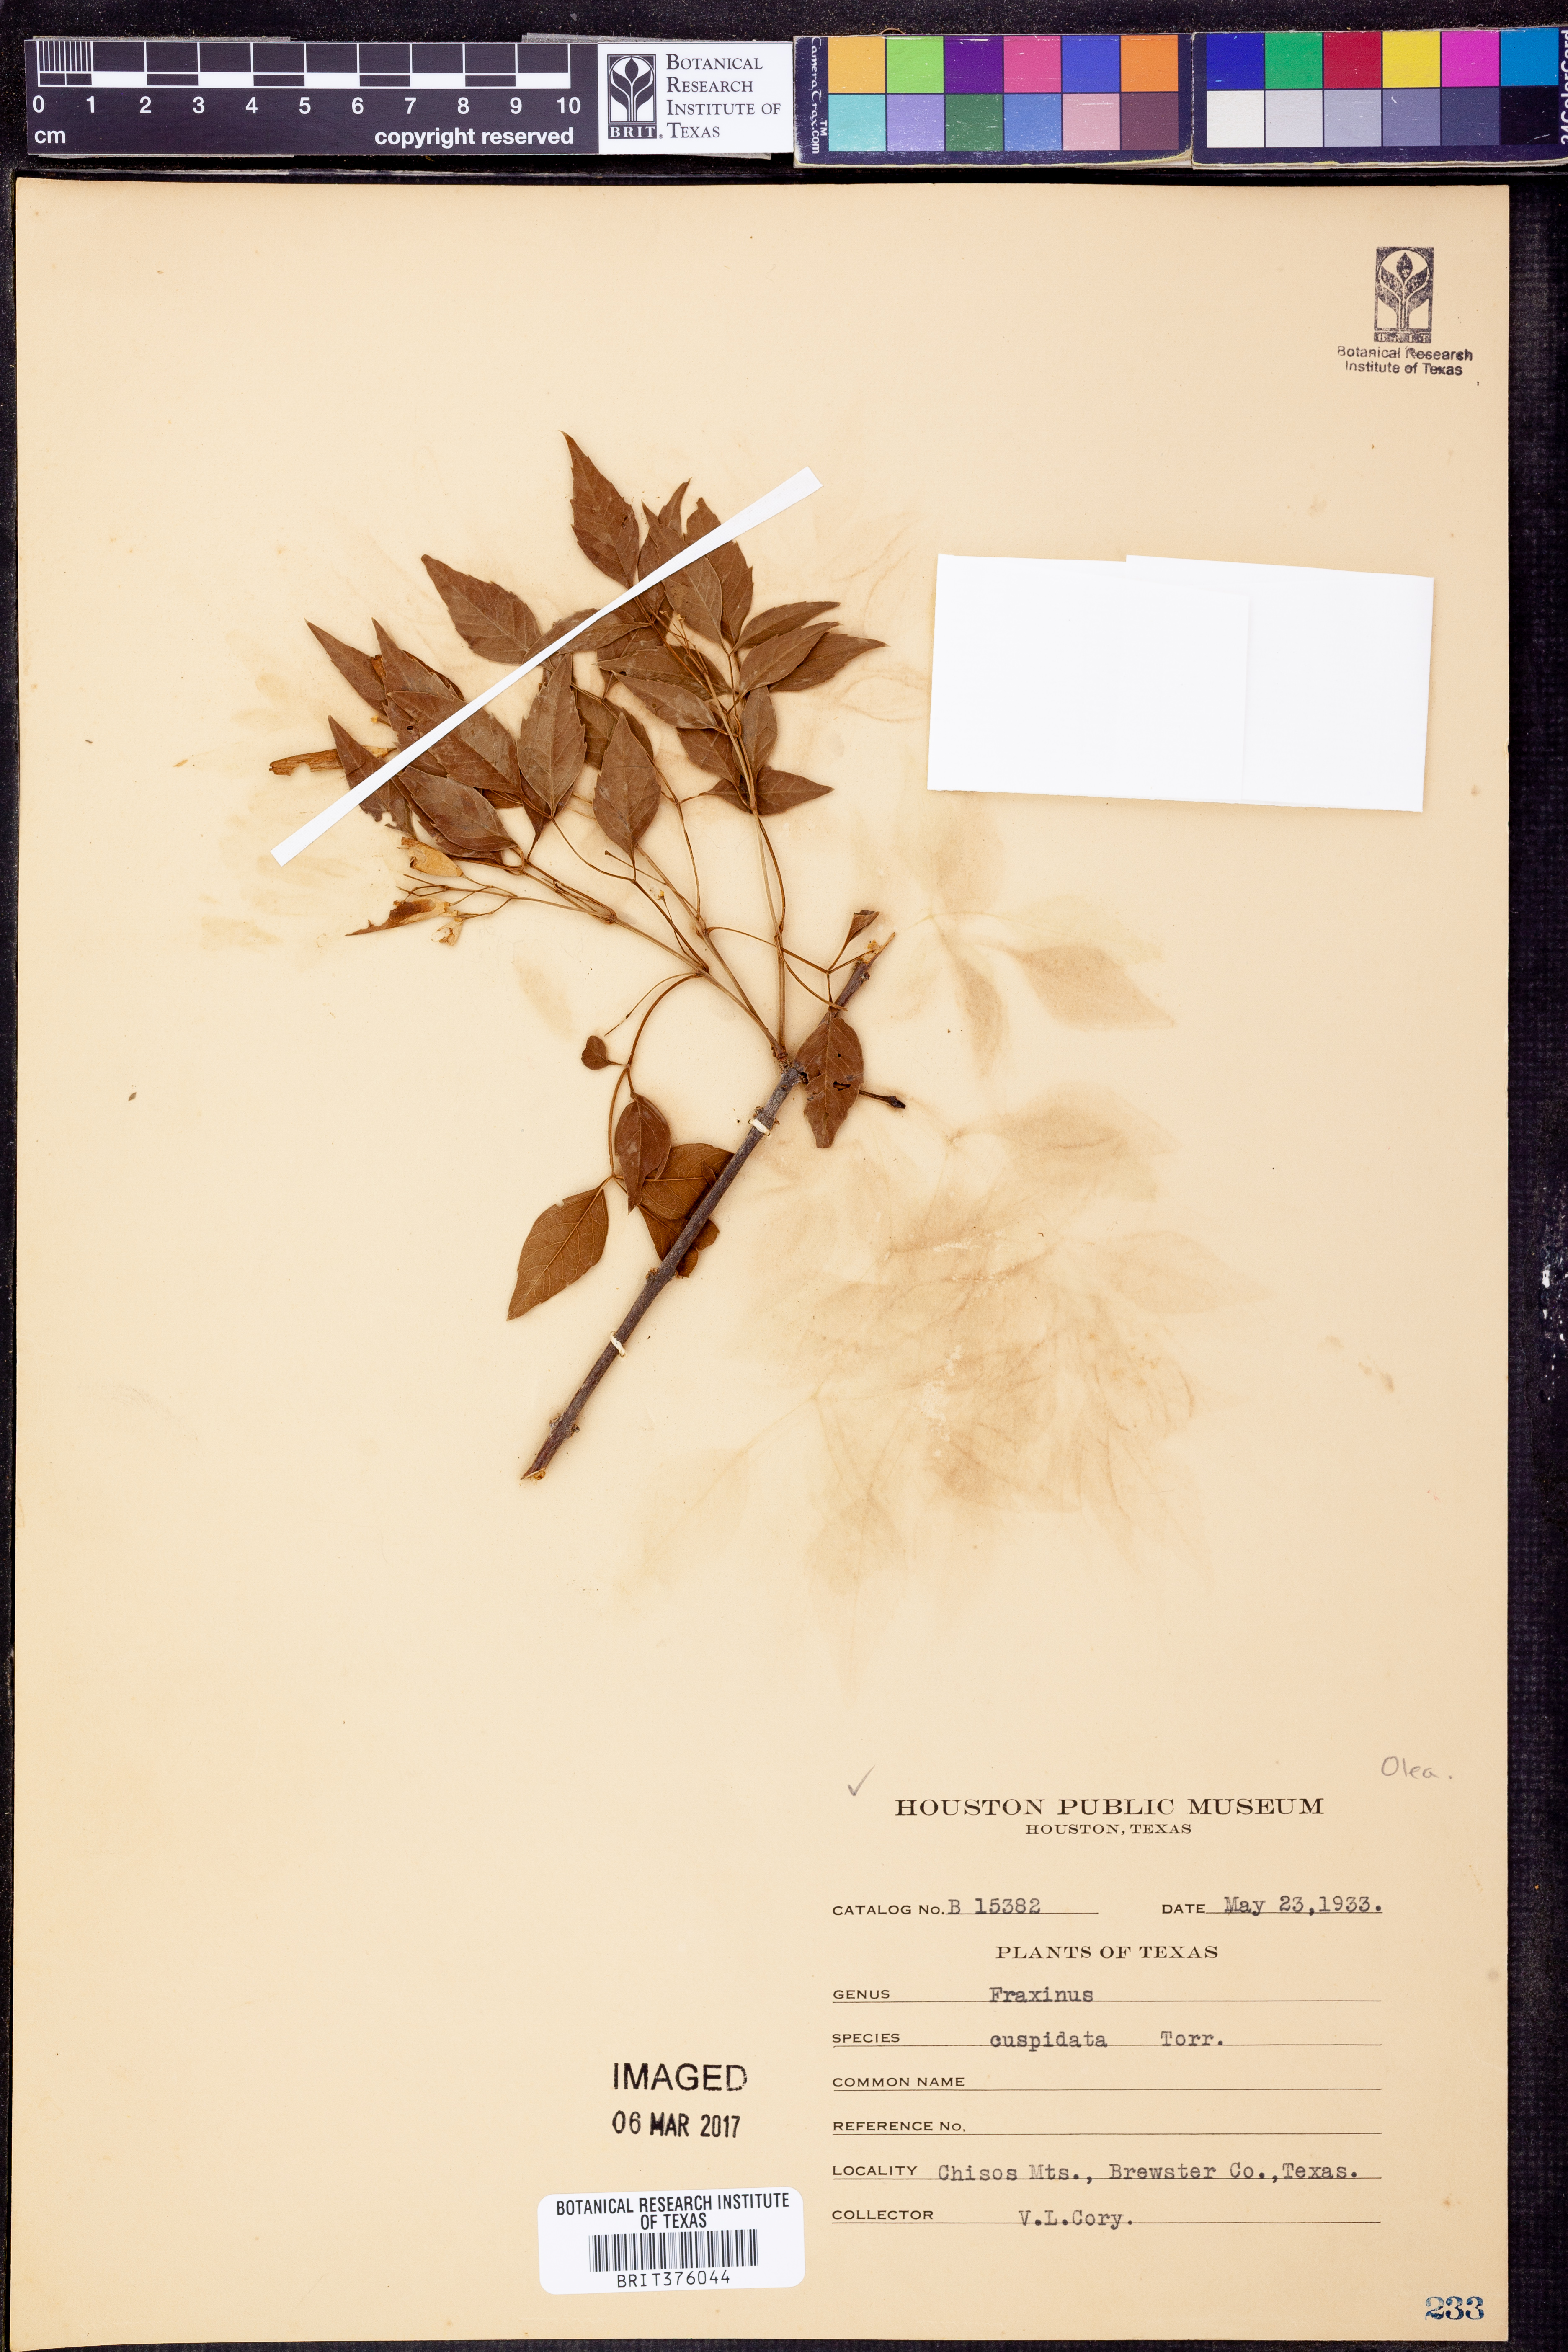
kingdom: Plantae
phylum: Tracheophyta
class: Magnoliopsida
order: Lamiales
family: Oleaceae
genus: Fraxinus
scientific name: Fraxinus cuspidata
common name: Fragrant ash
